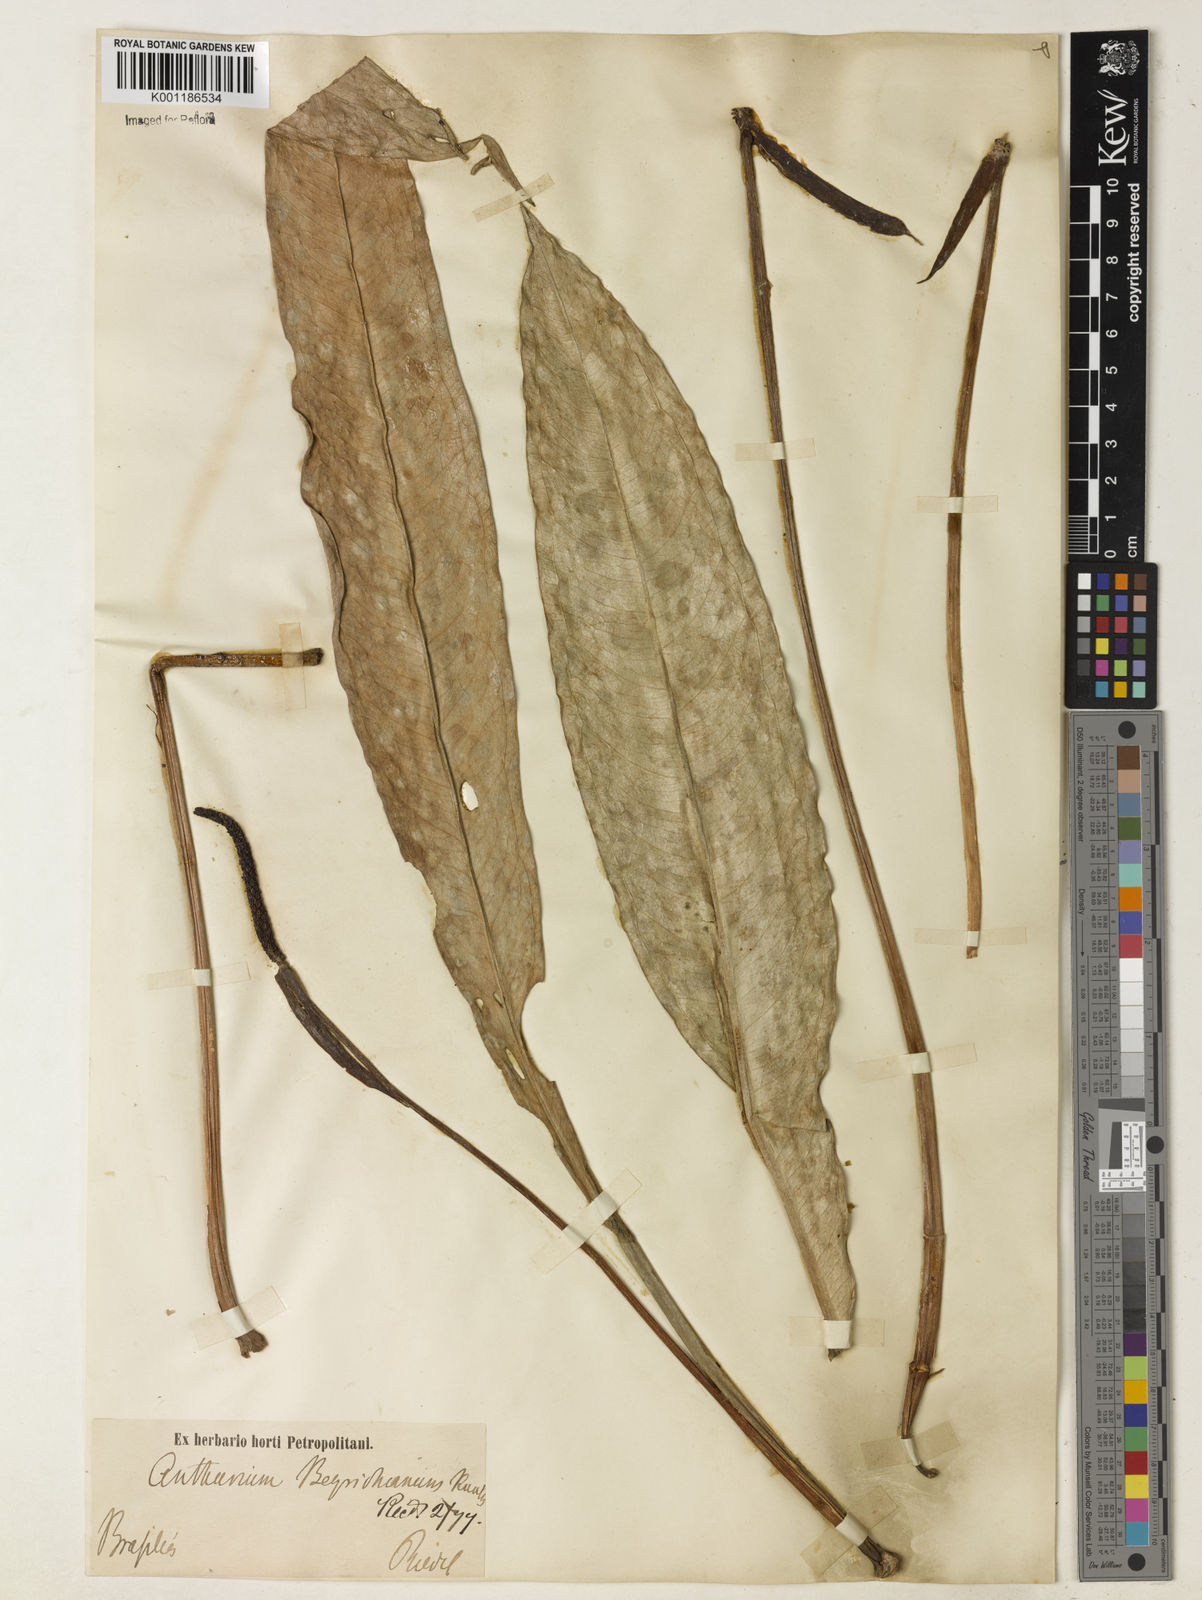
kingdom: Plantae
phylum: Tracheophyta
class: Liliopsida
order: Alismatales
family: Araceae
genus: Anthurium
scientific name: Anthurium intermedium
